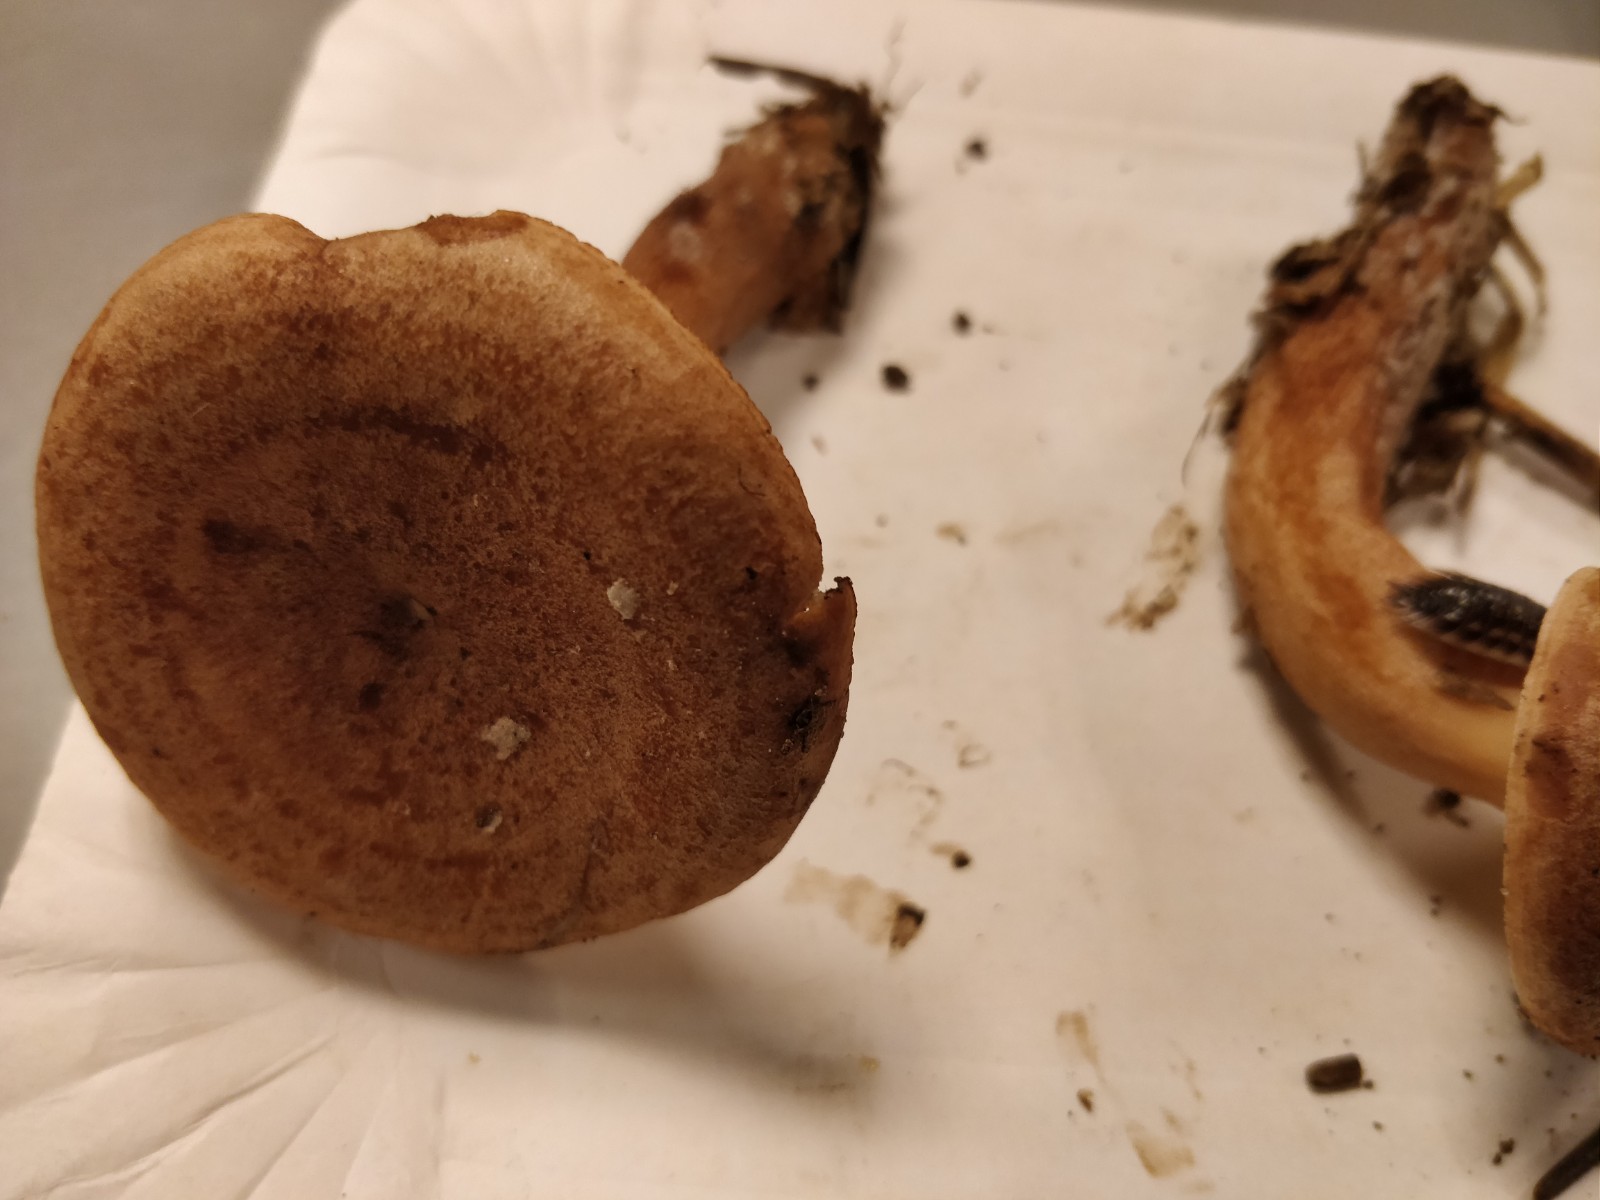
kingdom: Fungi
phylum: Basidiomycota
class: Agaricomycetes
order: Russulales
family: Russulaceae
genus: Lactarius
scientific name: Lactarius quietus
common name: ege-mælkehat
